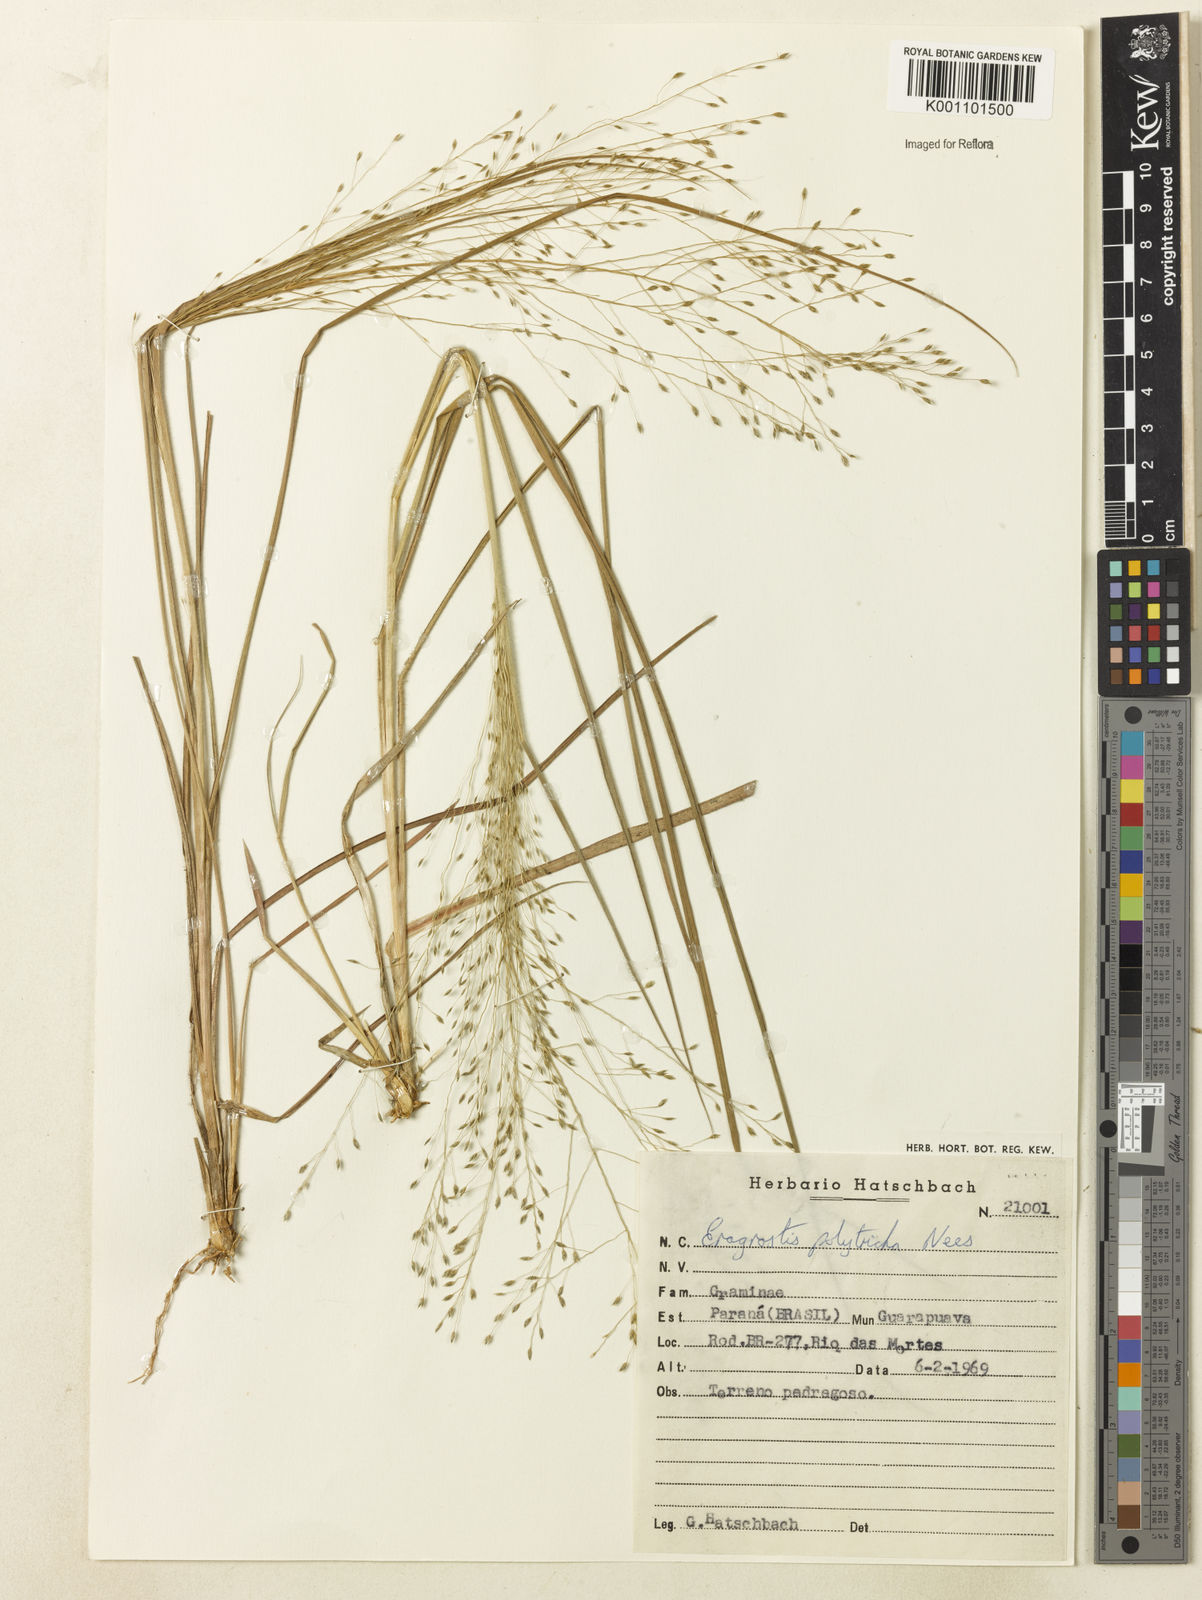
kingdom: Plantae
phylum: Tracheophyta
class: Liliopsida
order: Poales
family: Poaceae
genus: Eragrostis
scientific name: Eragrostis seminuda
